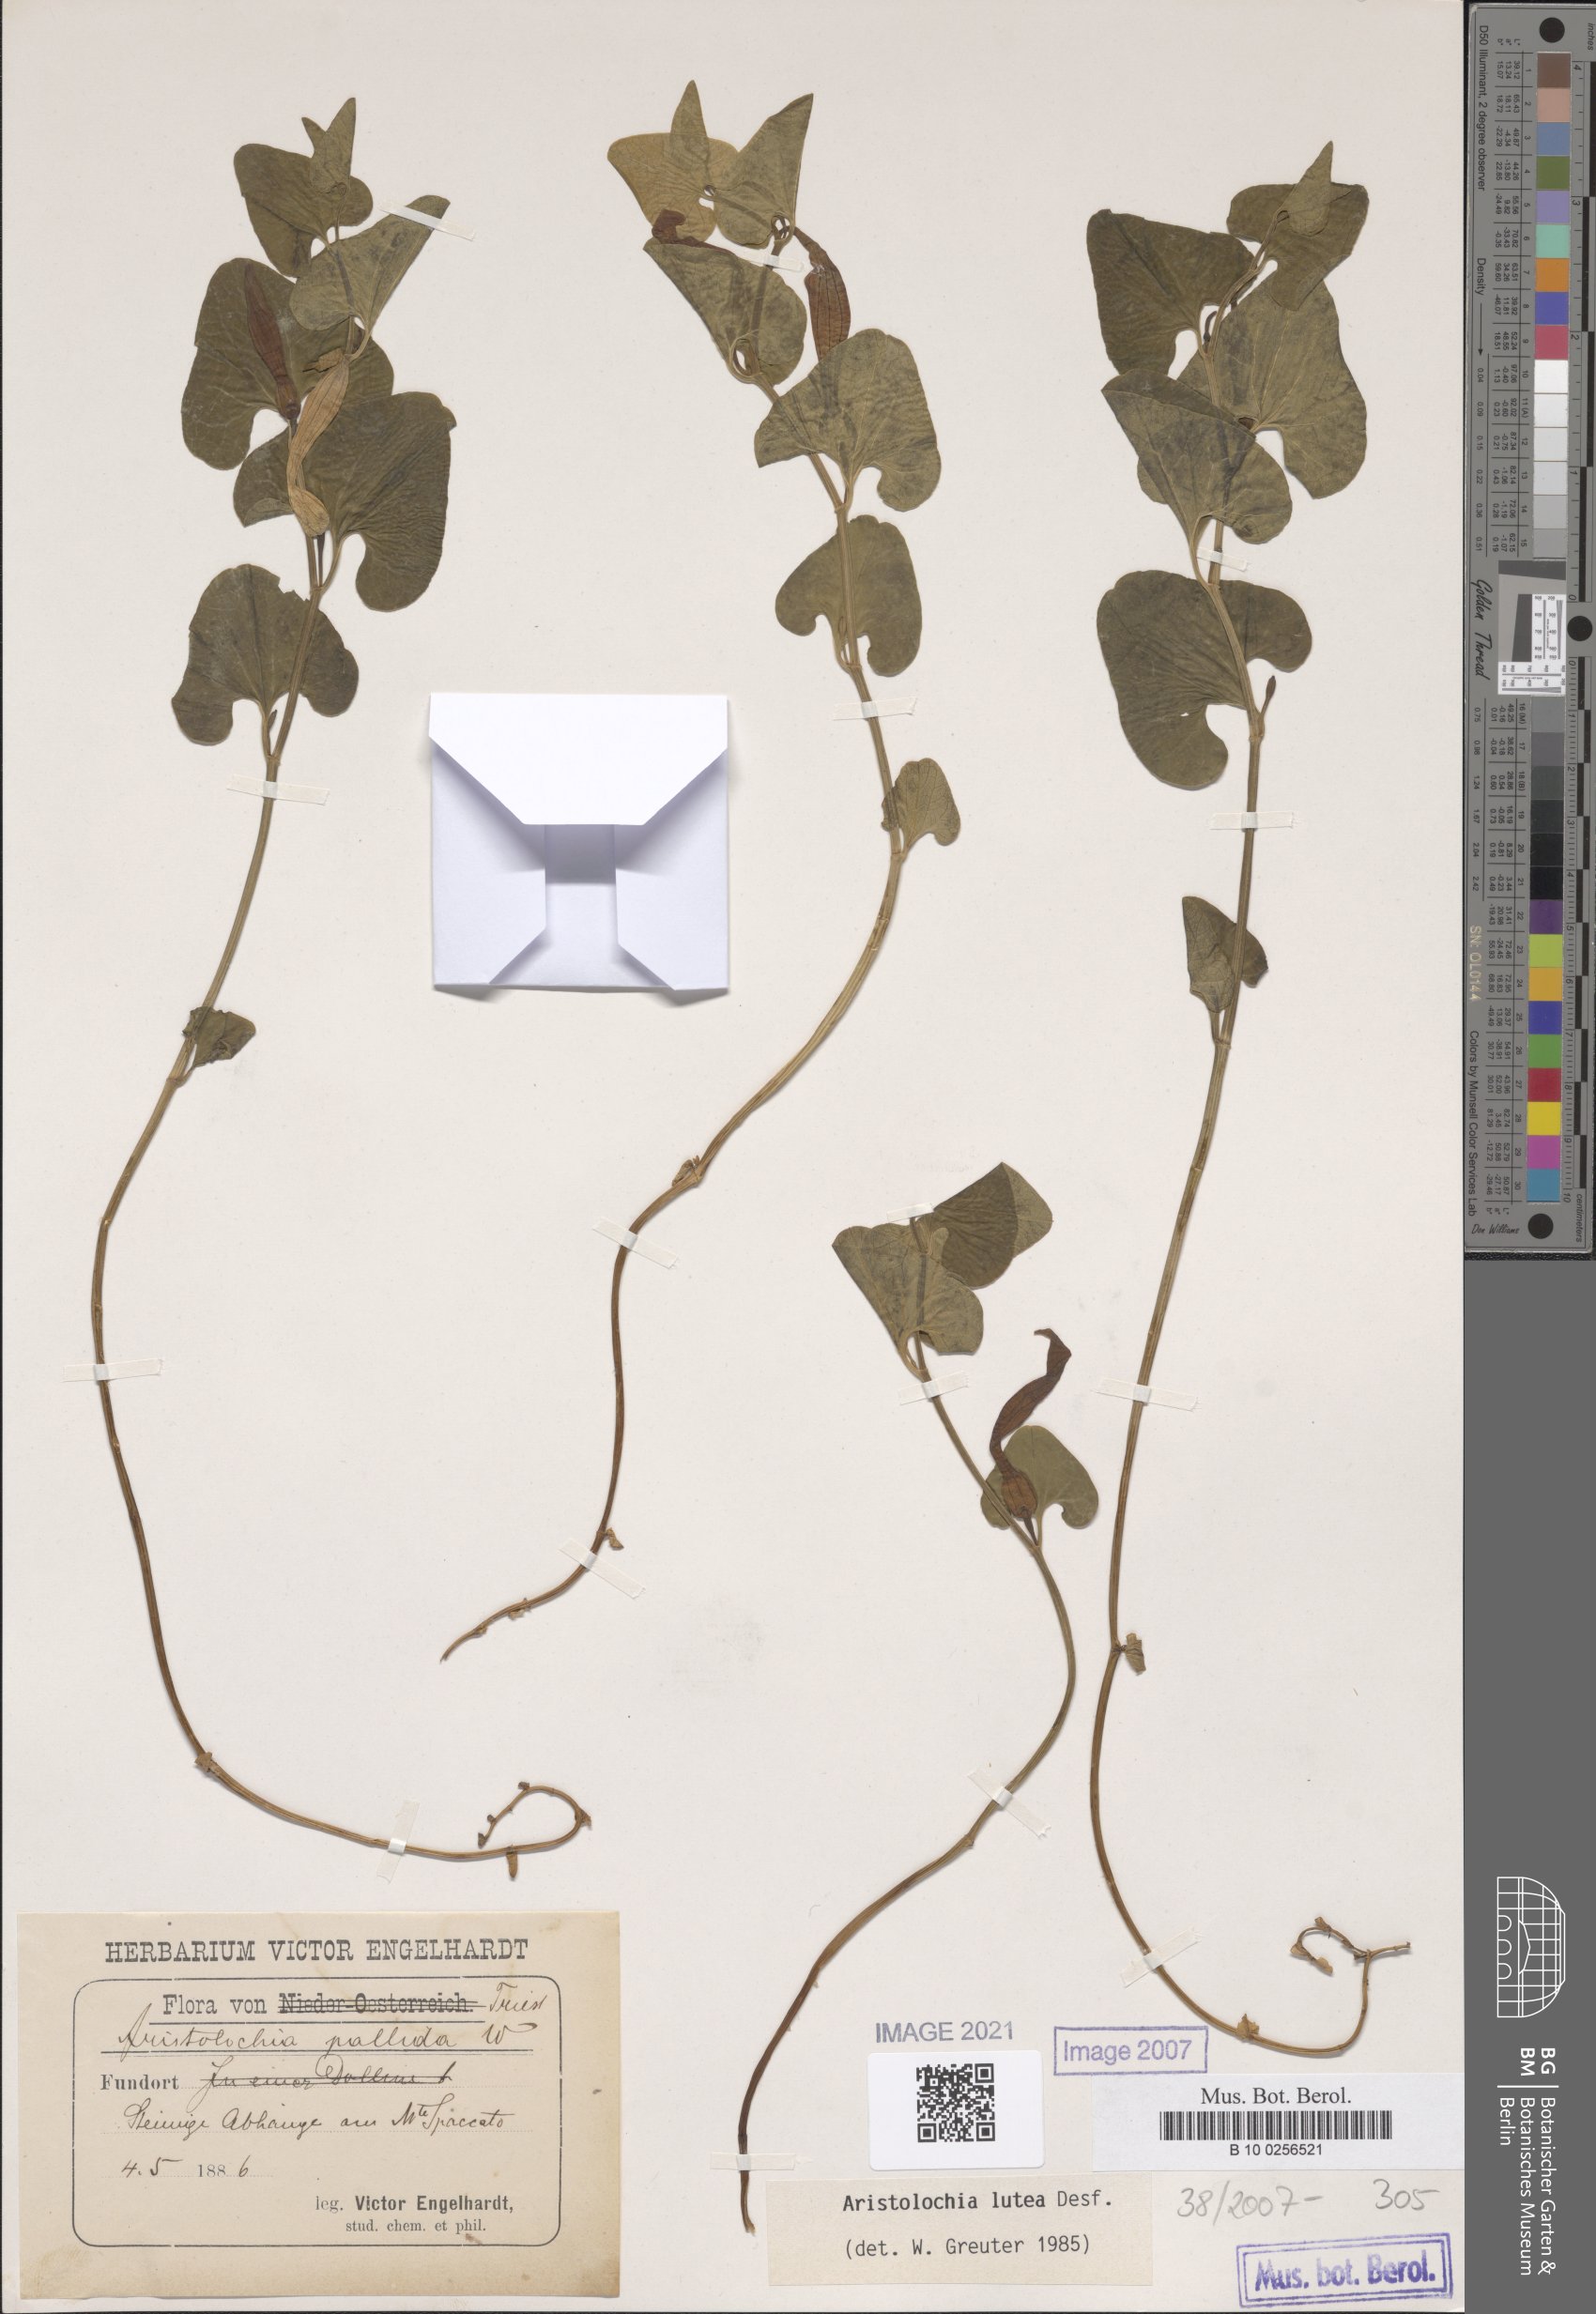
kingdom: Plantae
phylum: Tracheophyta
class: Magnoliopsida
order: Piperales
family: Aristolochiaceae
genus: Aristolochia
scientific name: Aristolochia lutea
